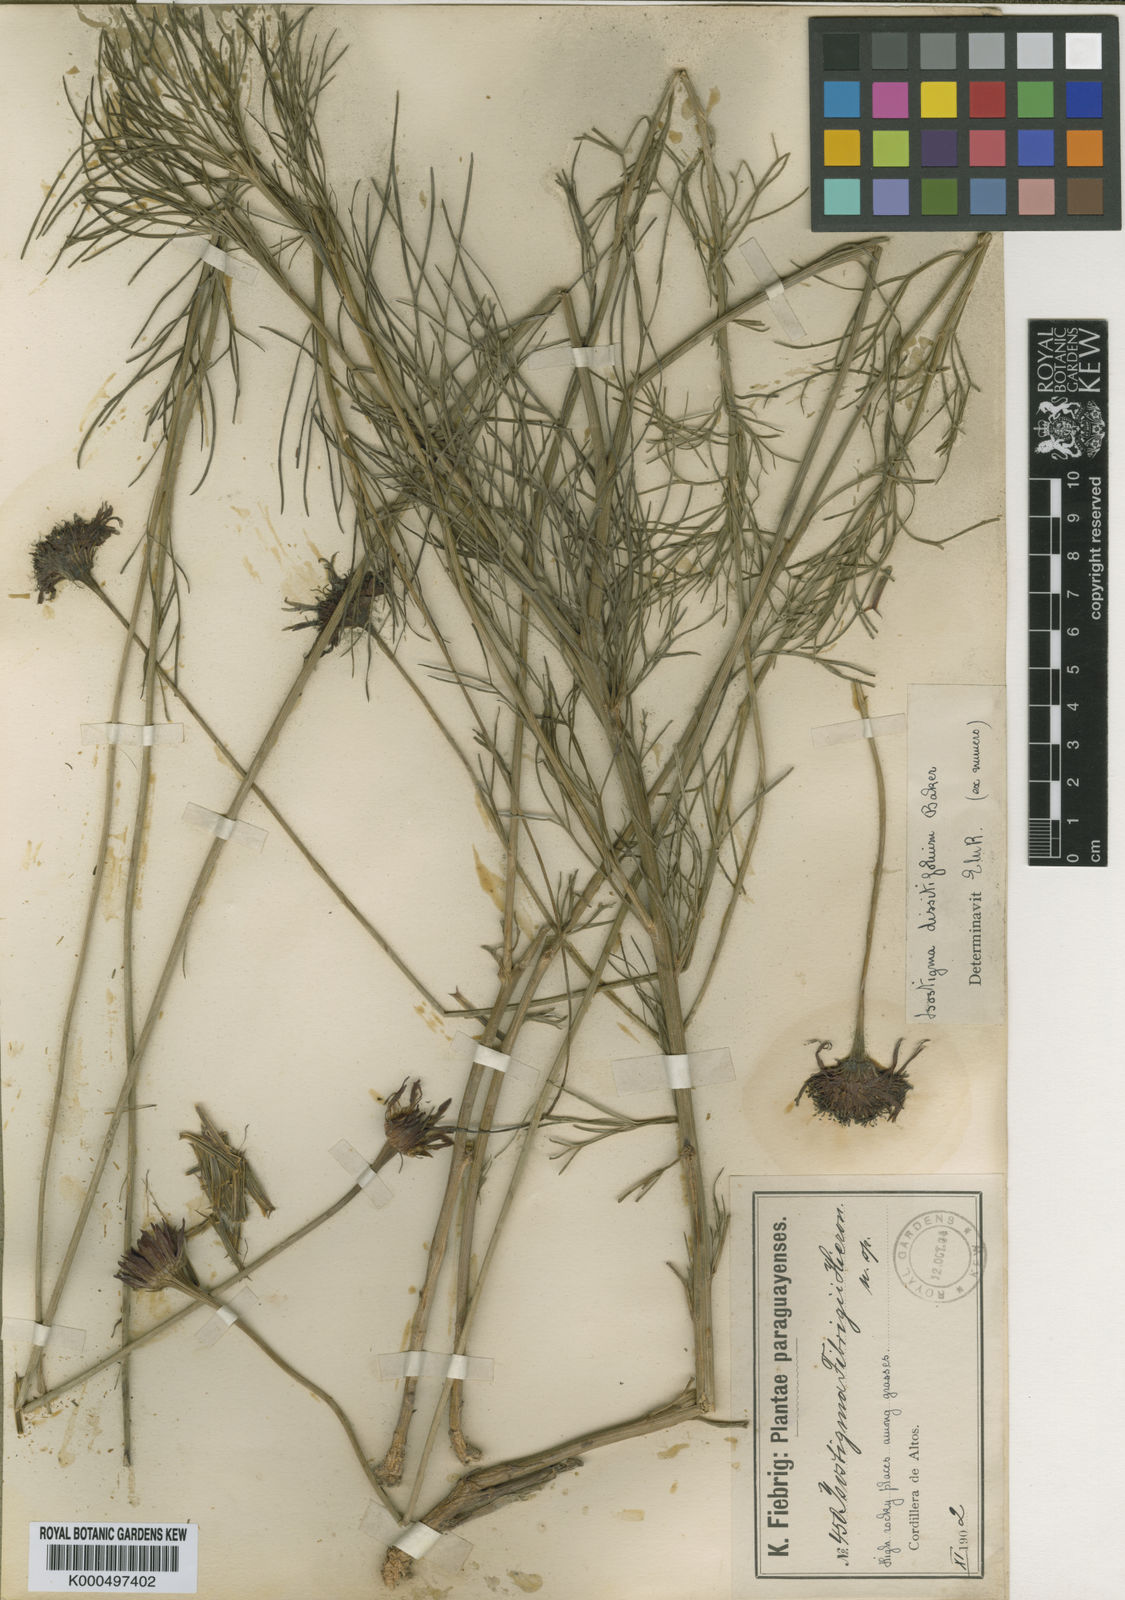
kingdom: Plantae
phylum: Tracheophyta
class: Magnoliopsida
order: Asterales
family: Asteraceae
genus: Isostigma
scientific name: Isostigma dissitifolium
